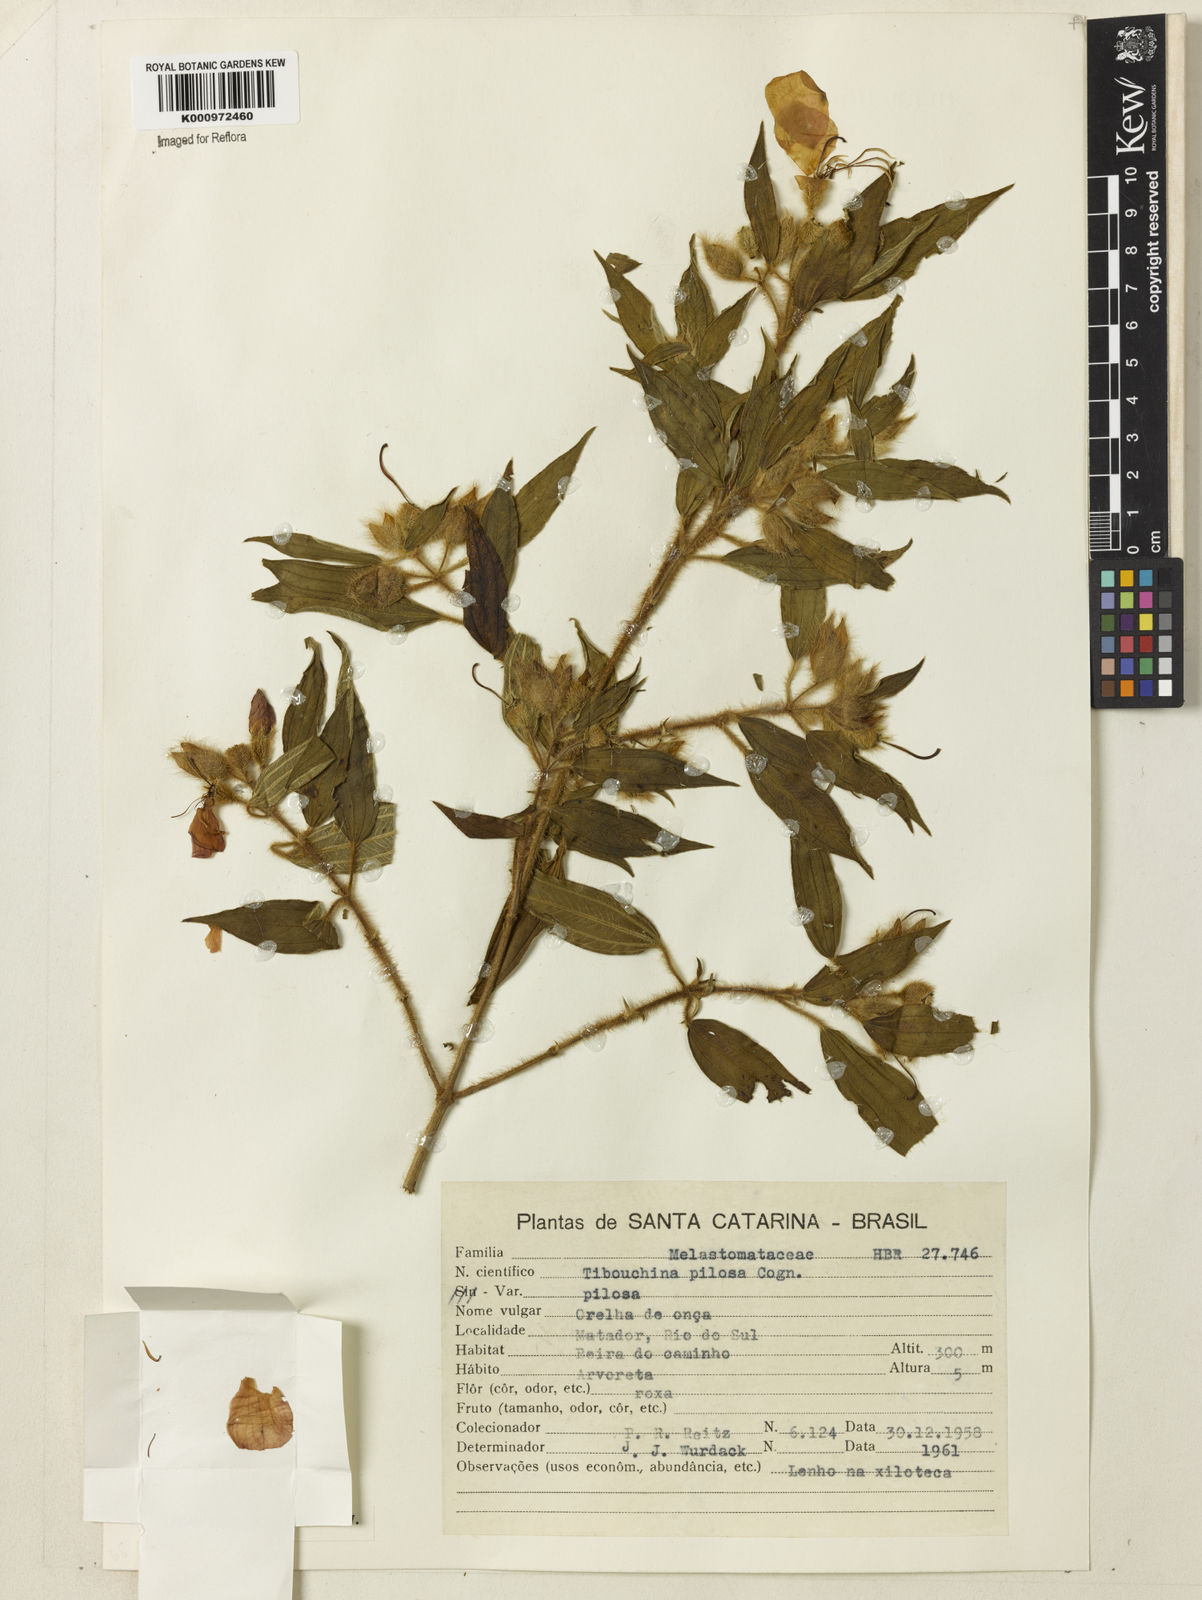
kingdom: Plantae
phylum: Tracheophyta
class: Magnoliopsida
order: Myrtales
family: Melastomataceae
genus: Pleroma
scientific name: Pleroma pilosum
